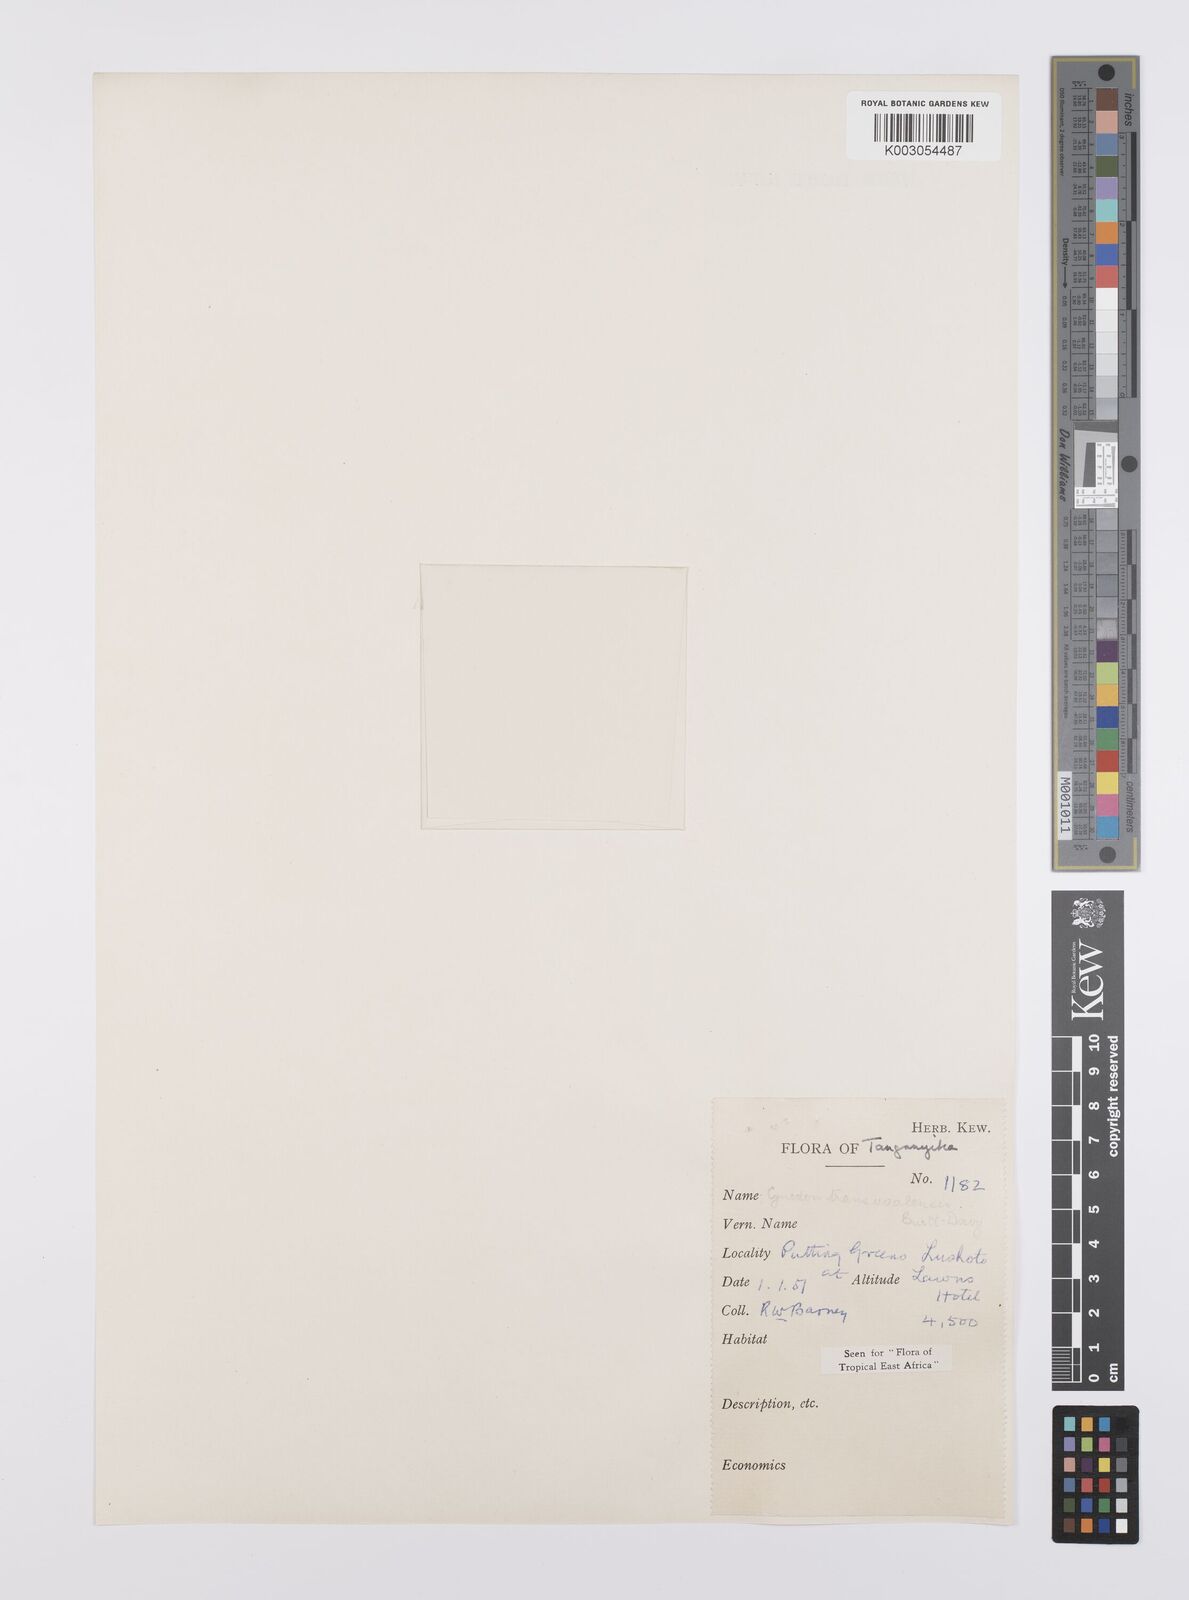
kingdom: Plantae
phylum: Tracheophyta
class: Liliopsida
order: Poales
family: Poaceae
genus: Cynodon
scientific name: Cynodon transvaalensis
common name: African bermuda grass
